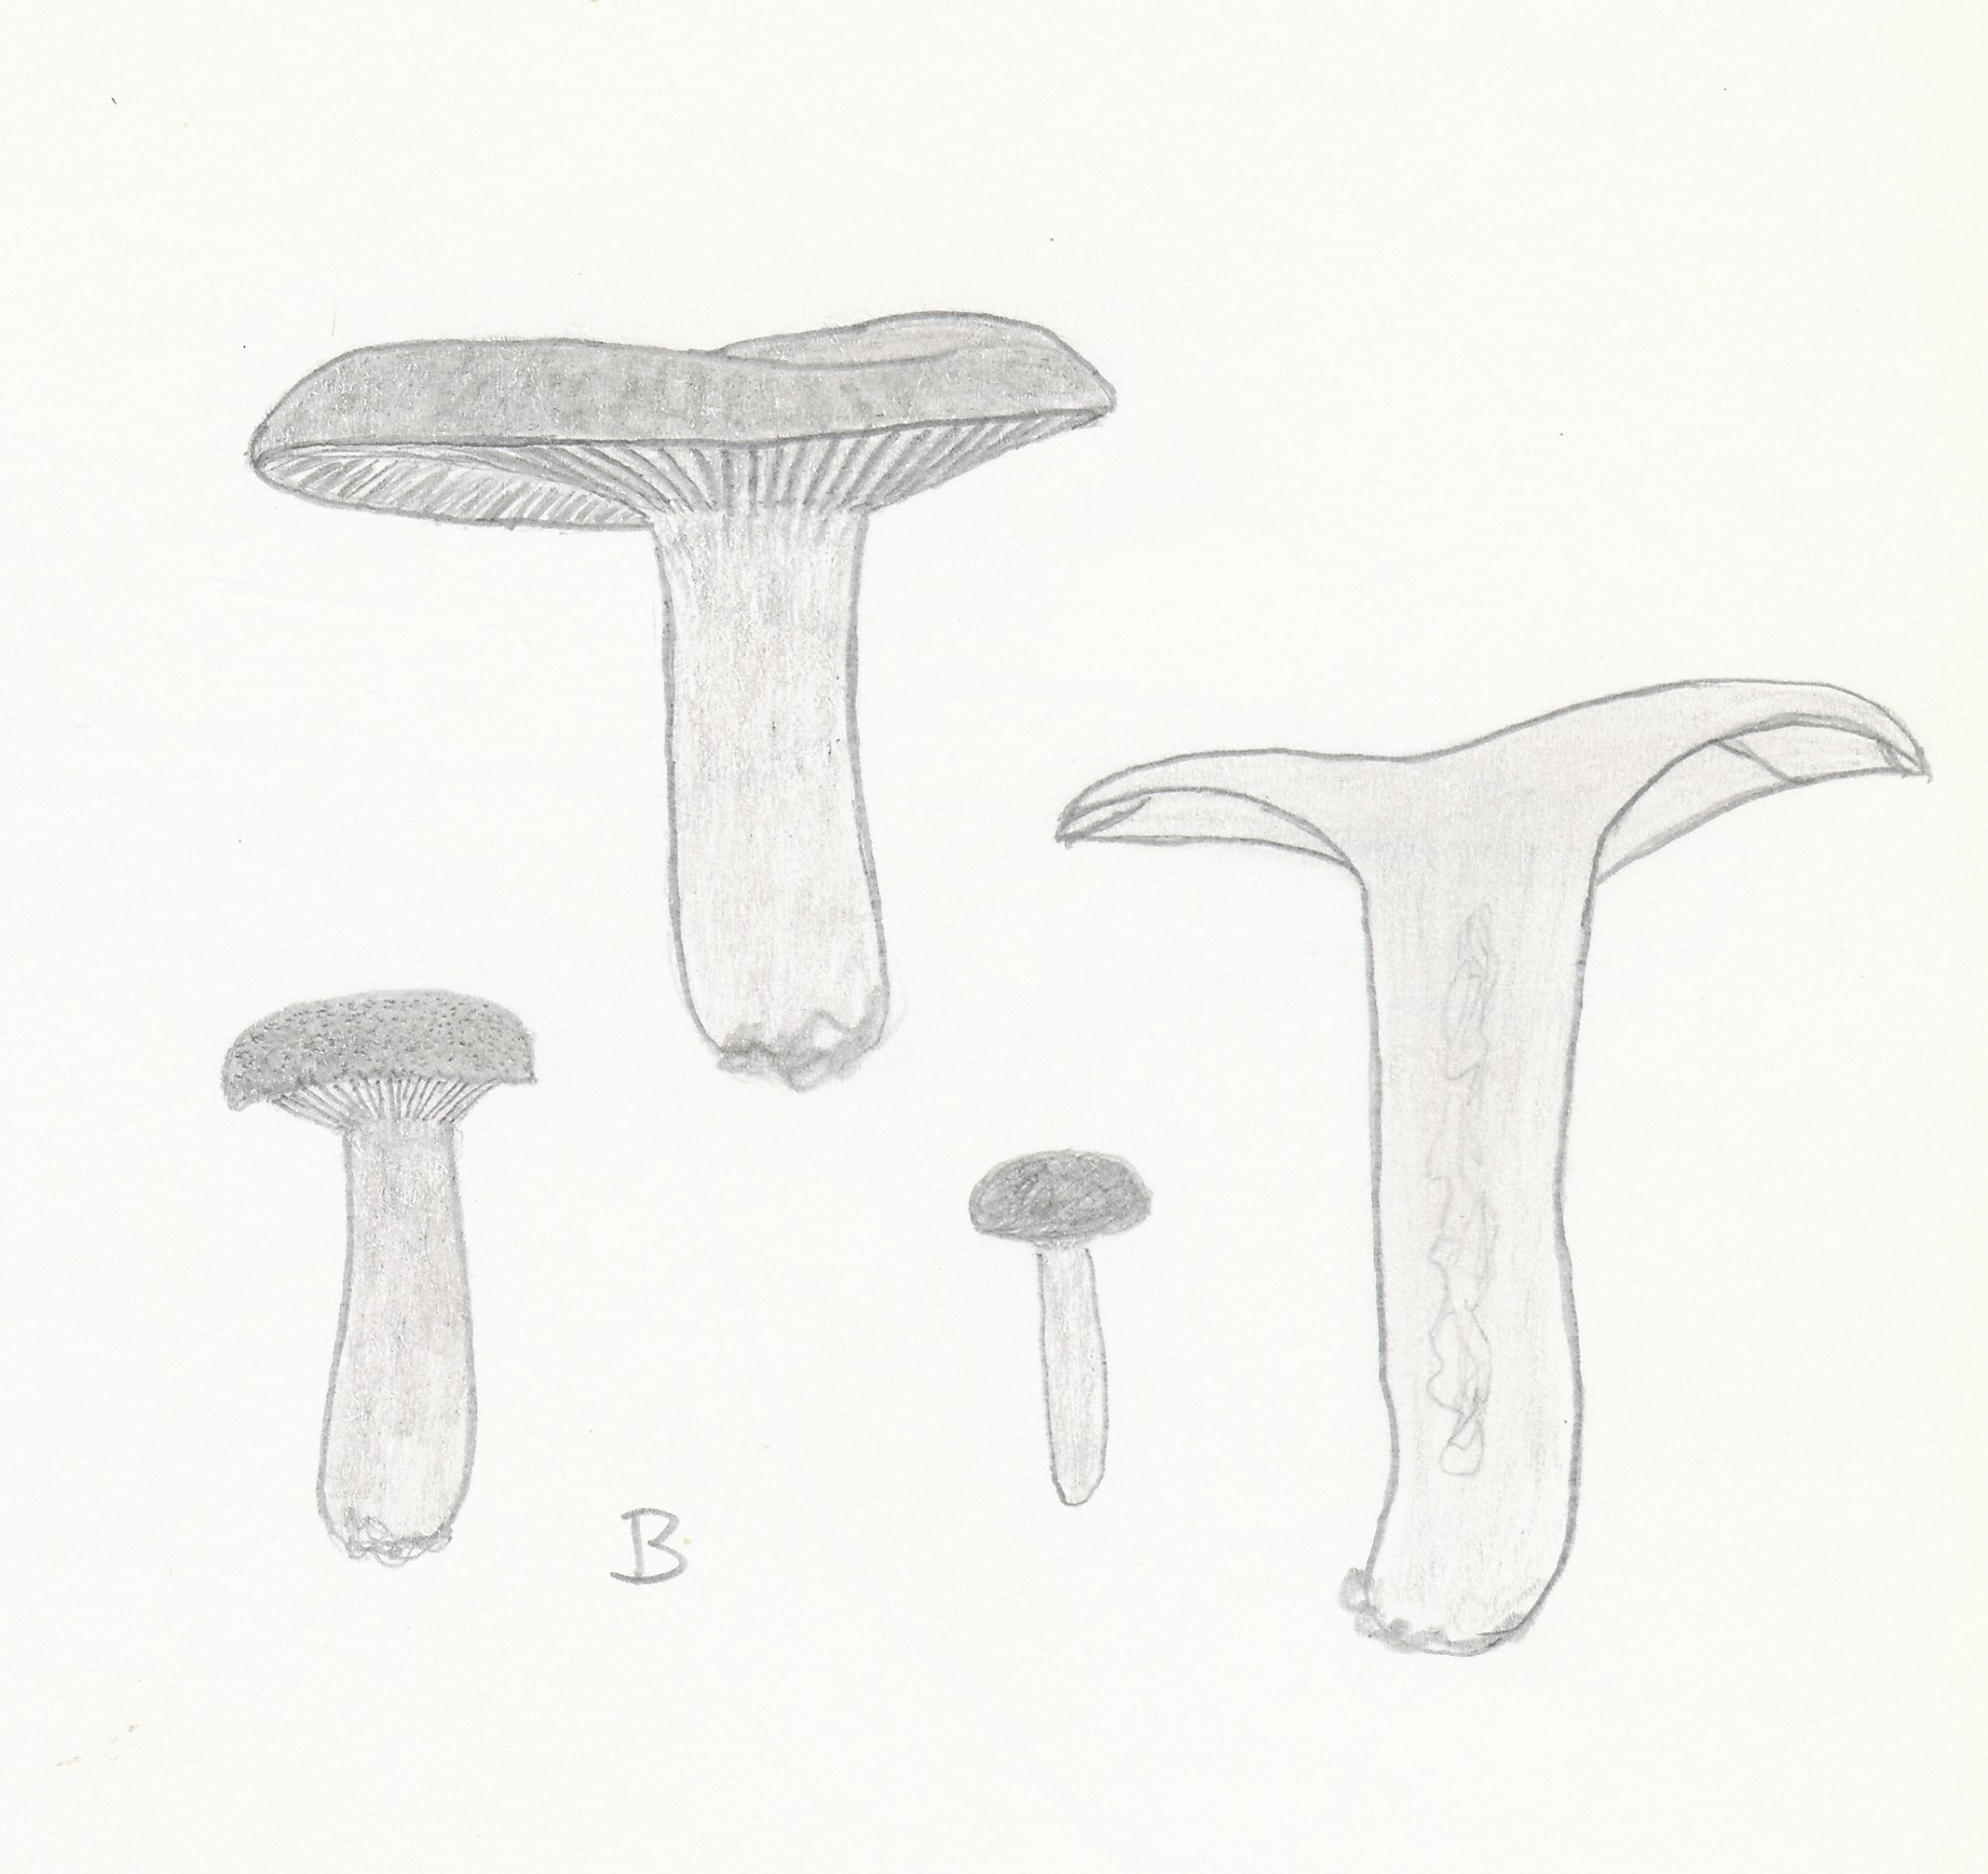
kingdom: Fungi
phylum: Basidiomycota
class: Agaricomycetes
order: Russulales
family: Russulaceae
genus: Lactarius
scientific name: Lactarius serifluus
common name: tæge-mælkehat
